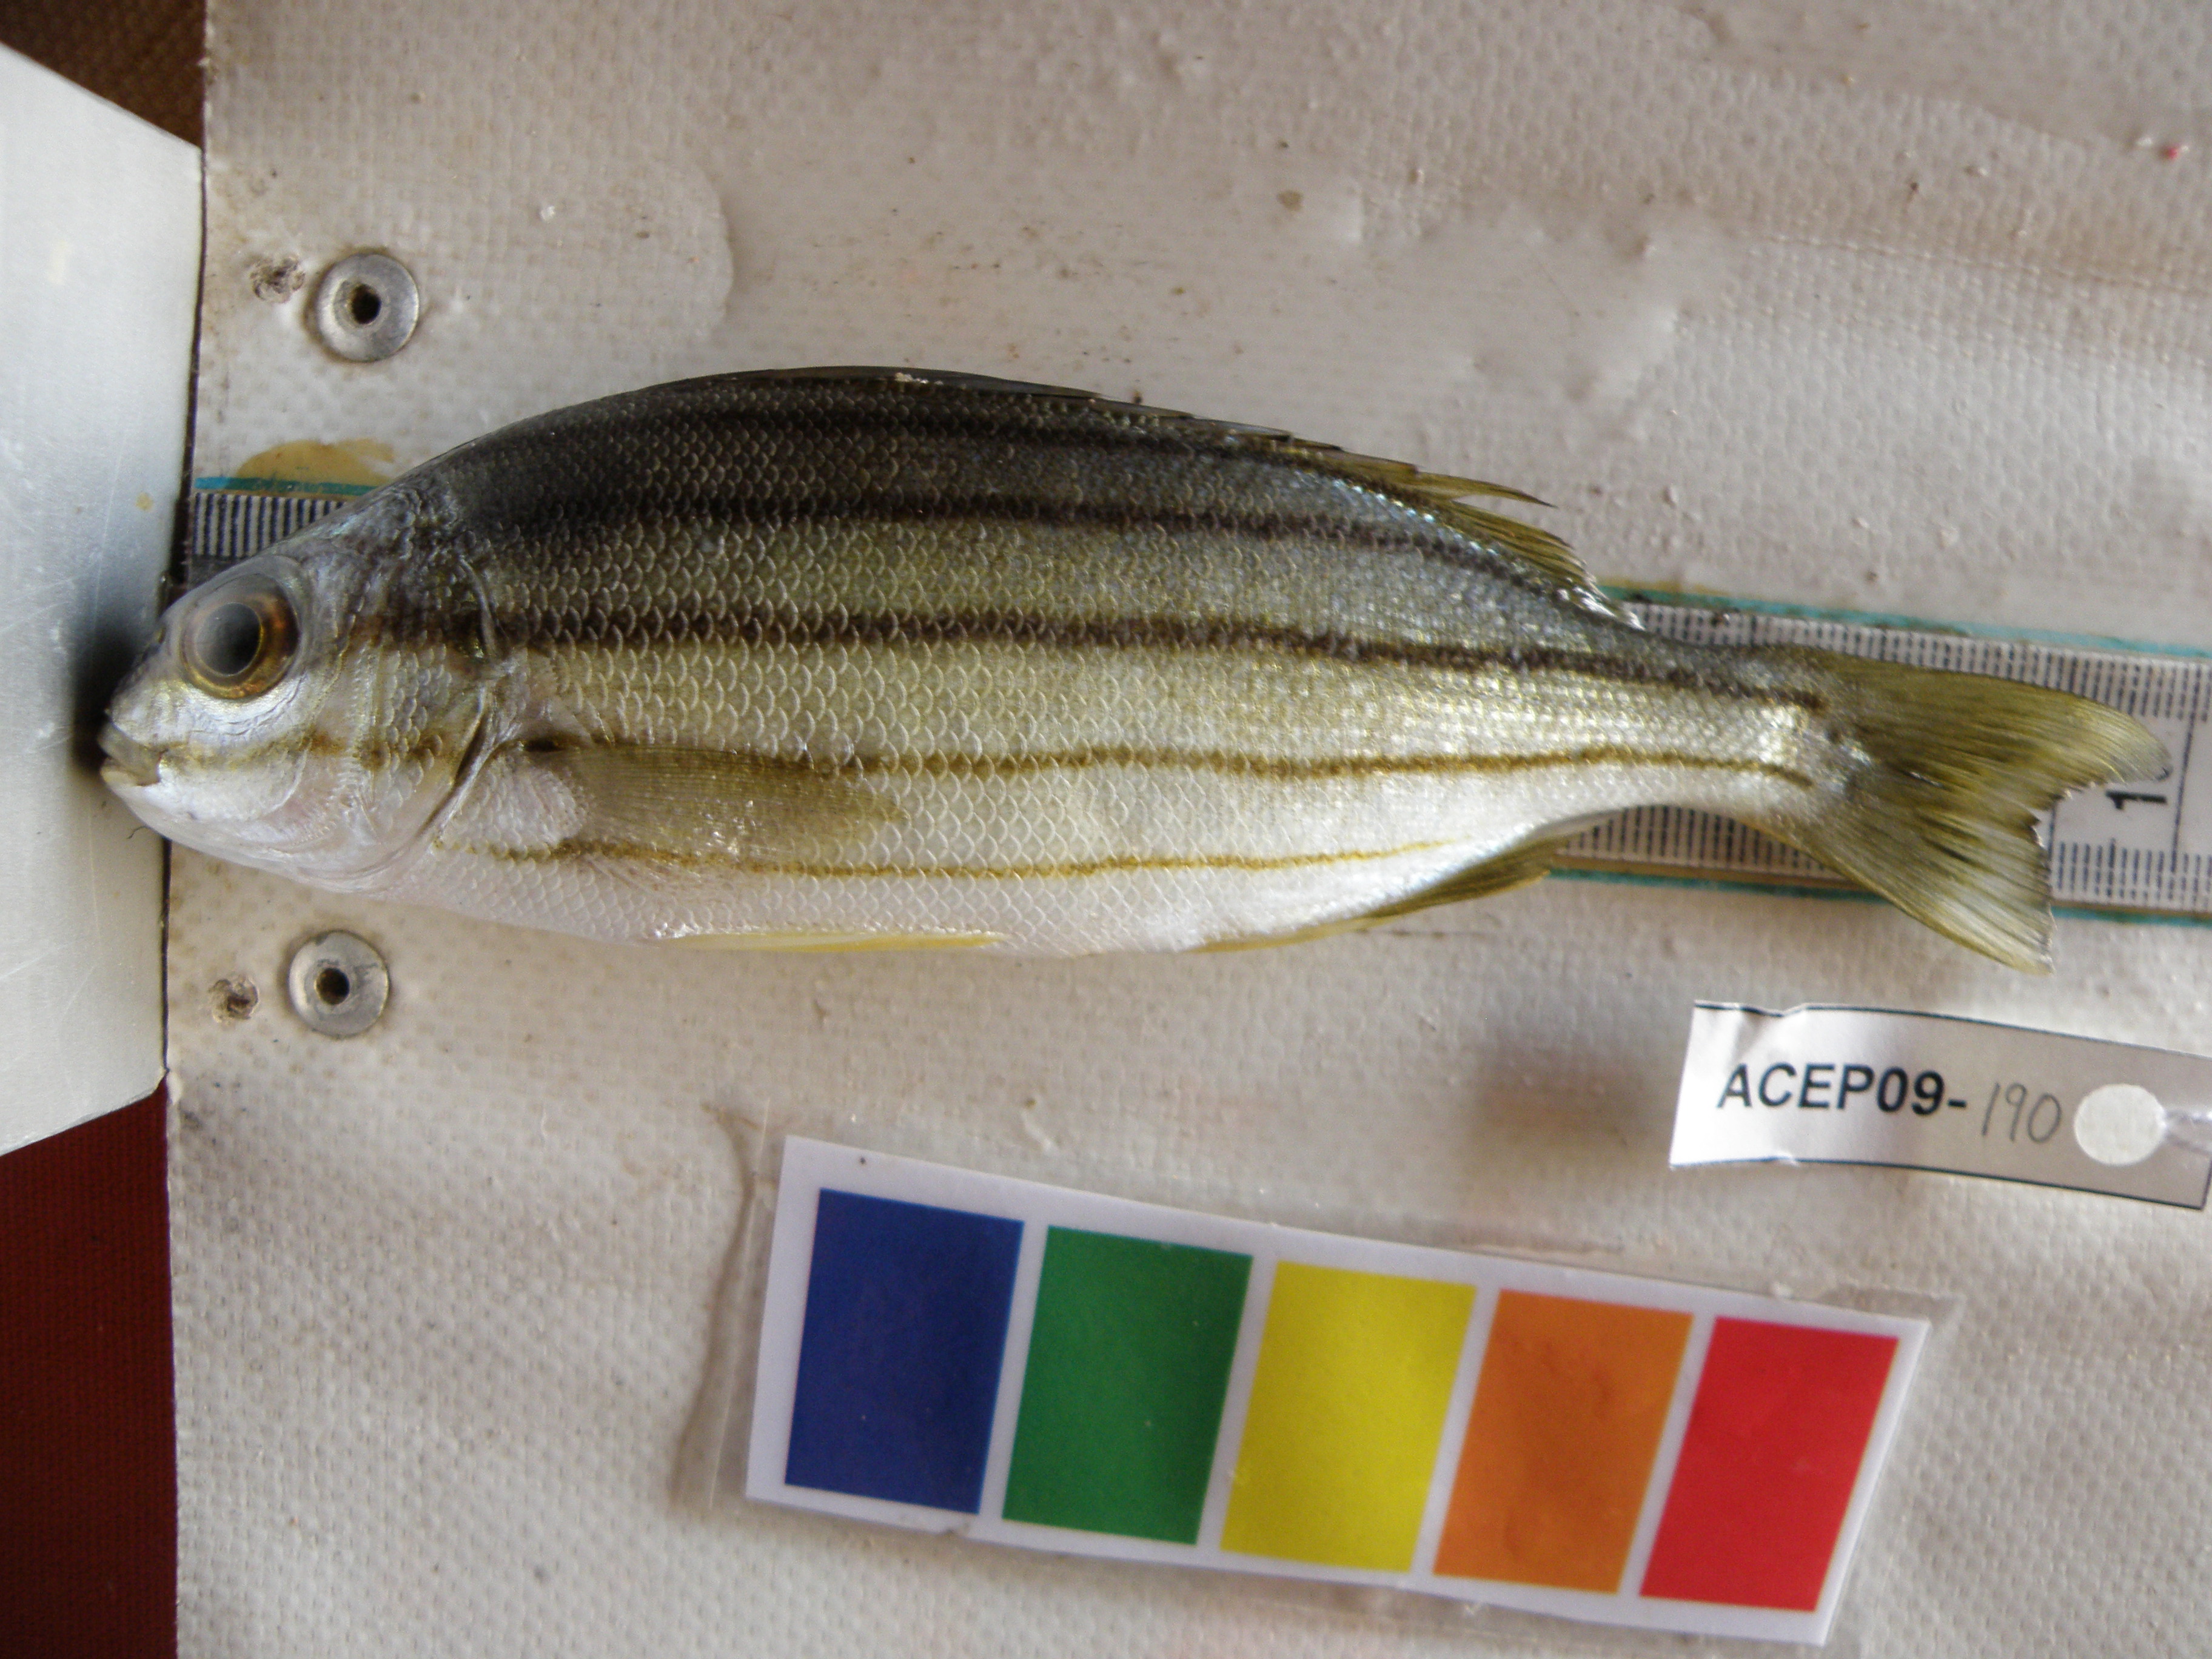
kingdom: Animalia
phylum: Chordata
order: Perciformes
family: Terapontidae
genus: Pelates
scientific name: Pelates quadrilineatus
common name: Fourlined terapon
